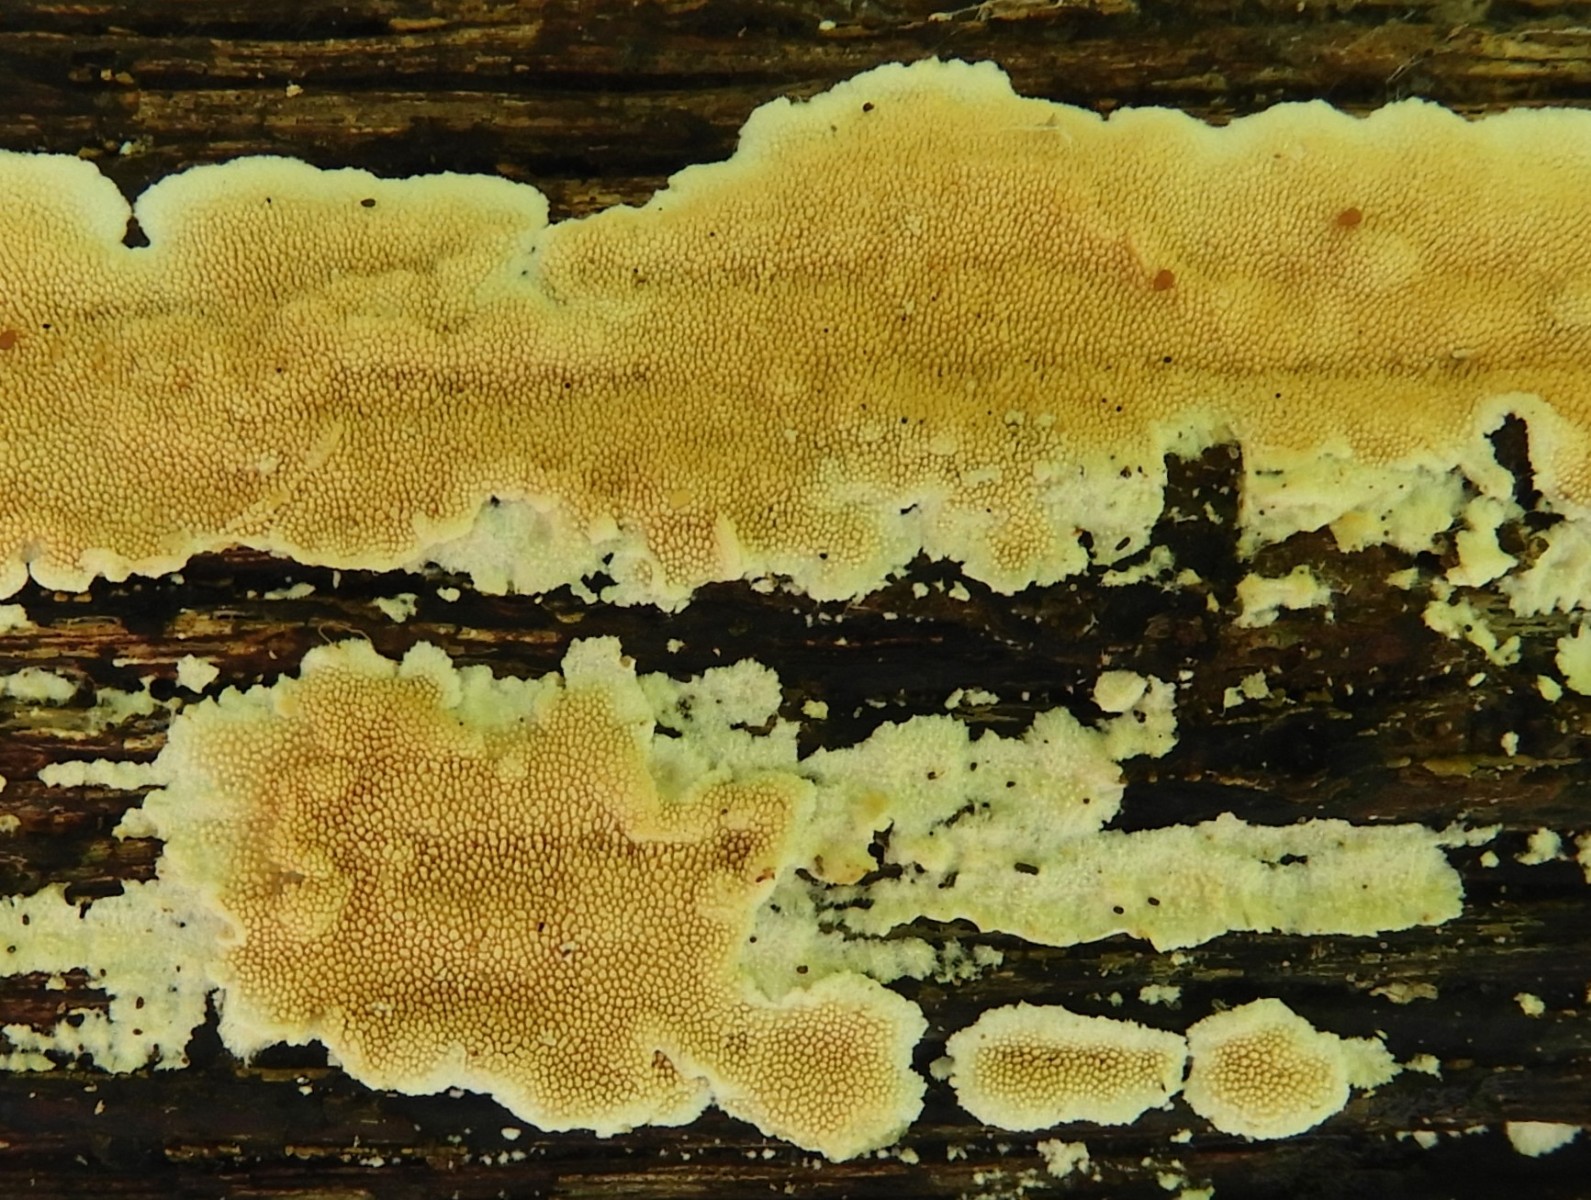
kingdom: Fungi
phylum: Basidiomycota
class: Agaricomycetes
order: Polyporales
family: Steccherinaceae
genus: Steccherinum
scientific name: Steccherinum ochraceum
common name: almindelig skønpig
